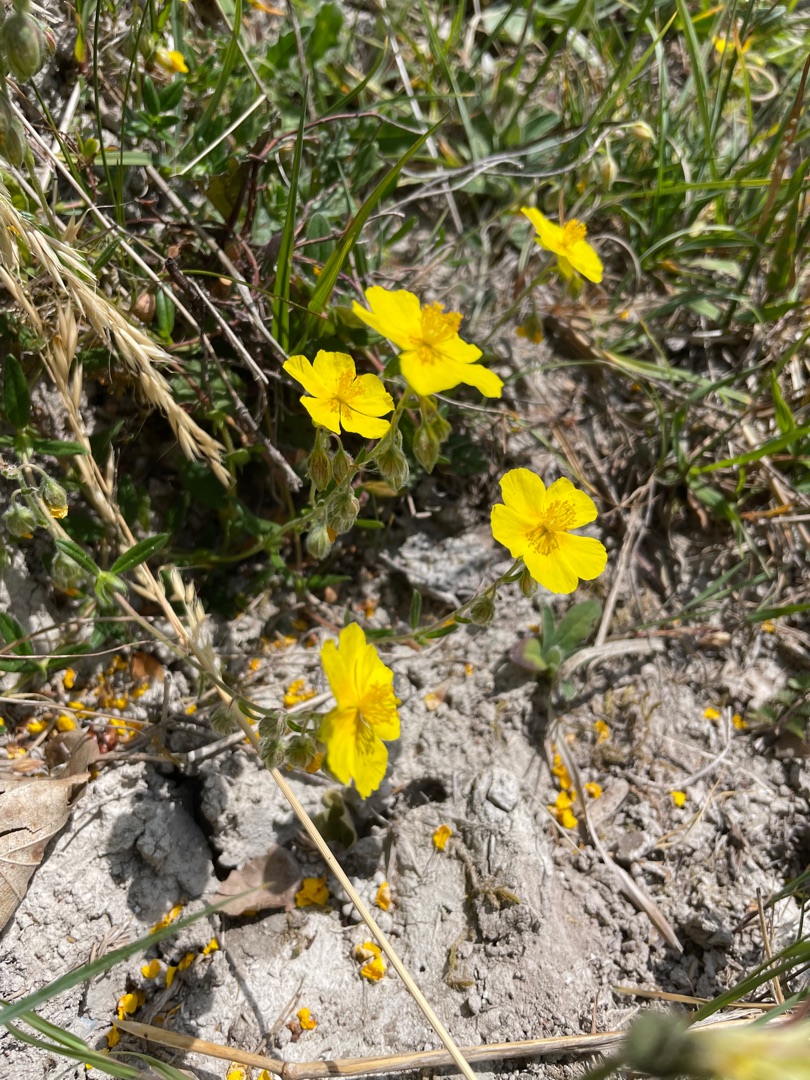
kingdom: Plantae
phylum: Tracheophyta
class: Magnoliopsida
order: Malvales
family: Cistaceae
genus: Helianthemum
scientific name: Helianthemum nummularium
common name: Soløje
